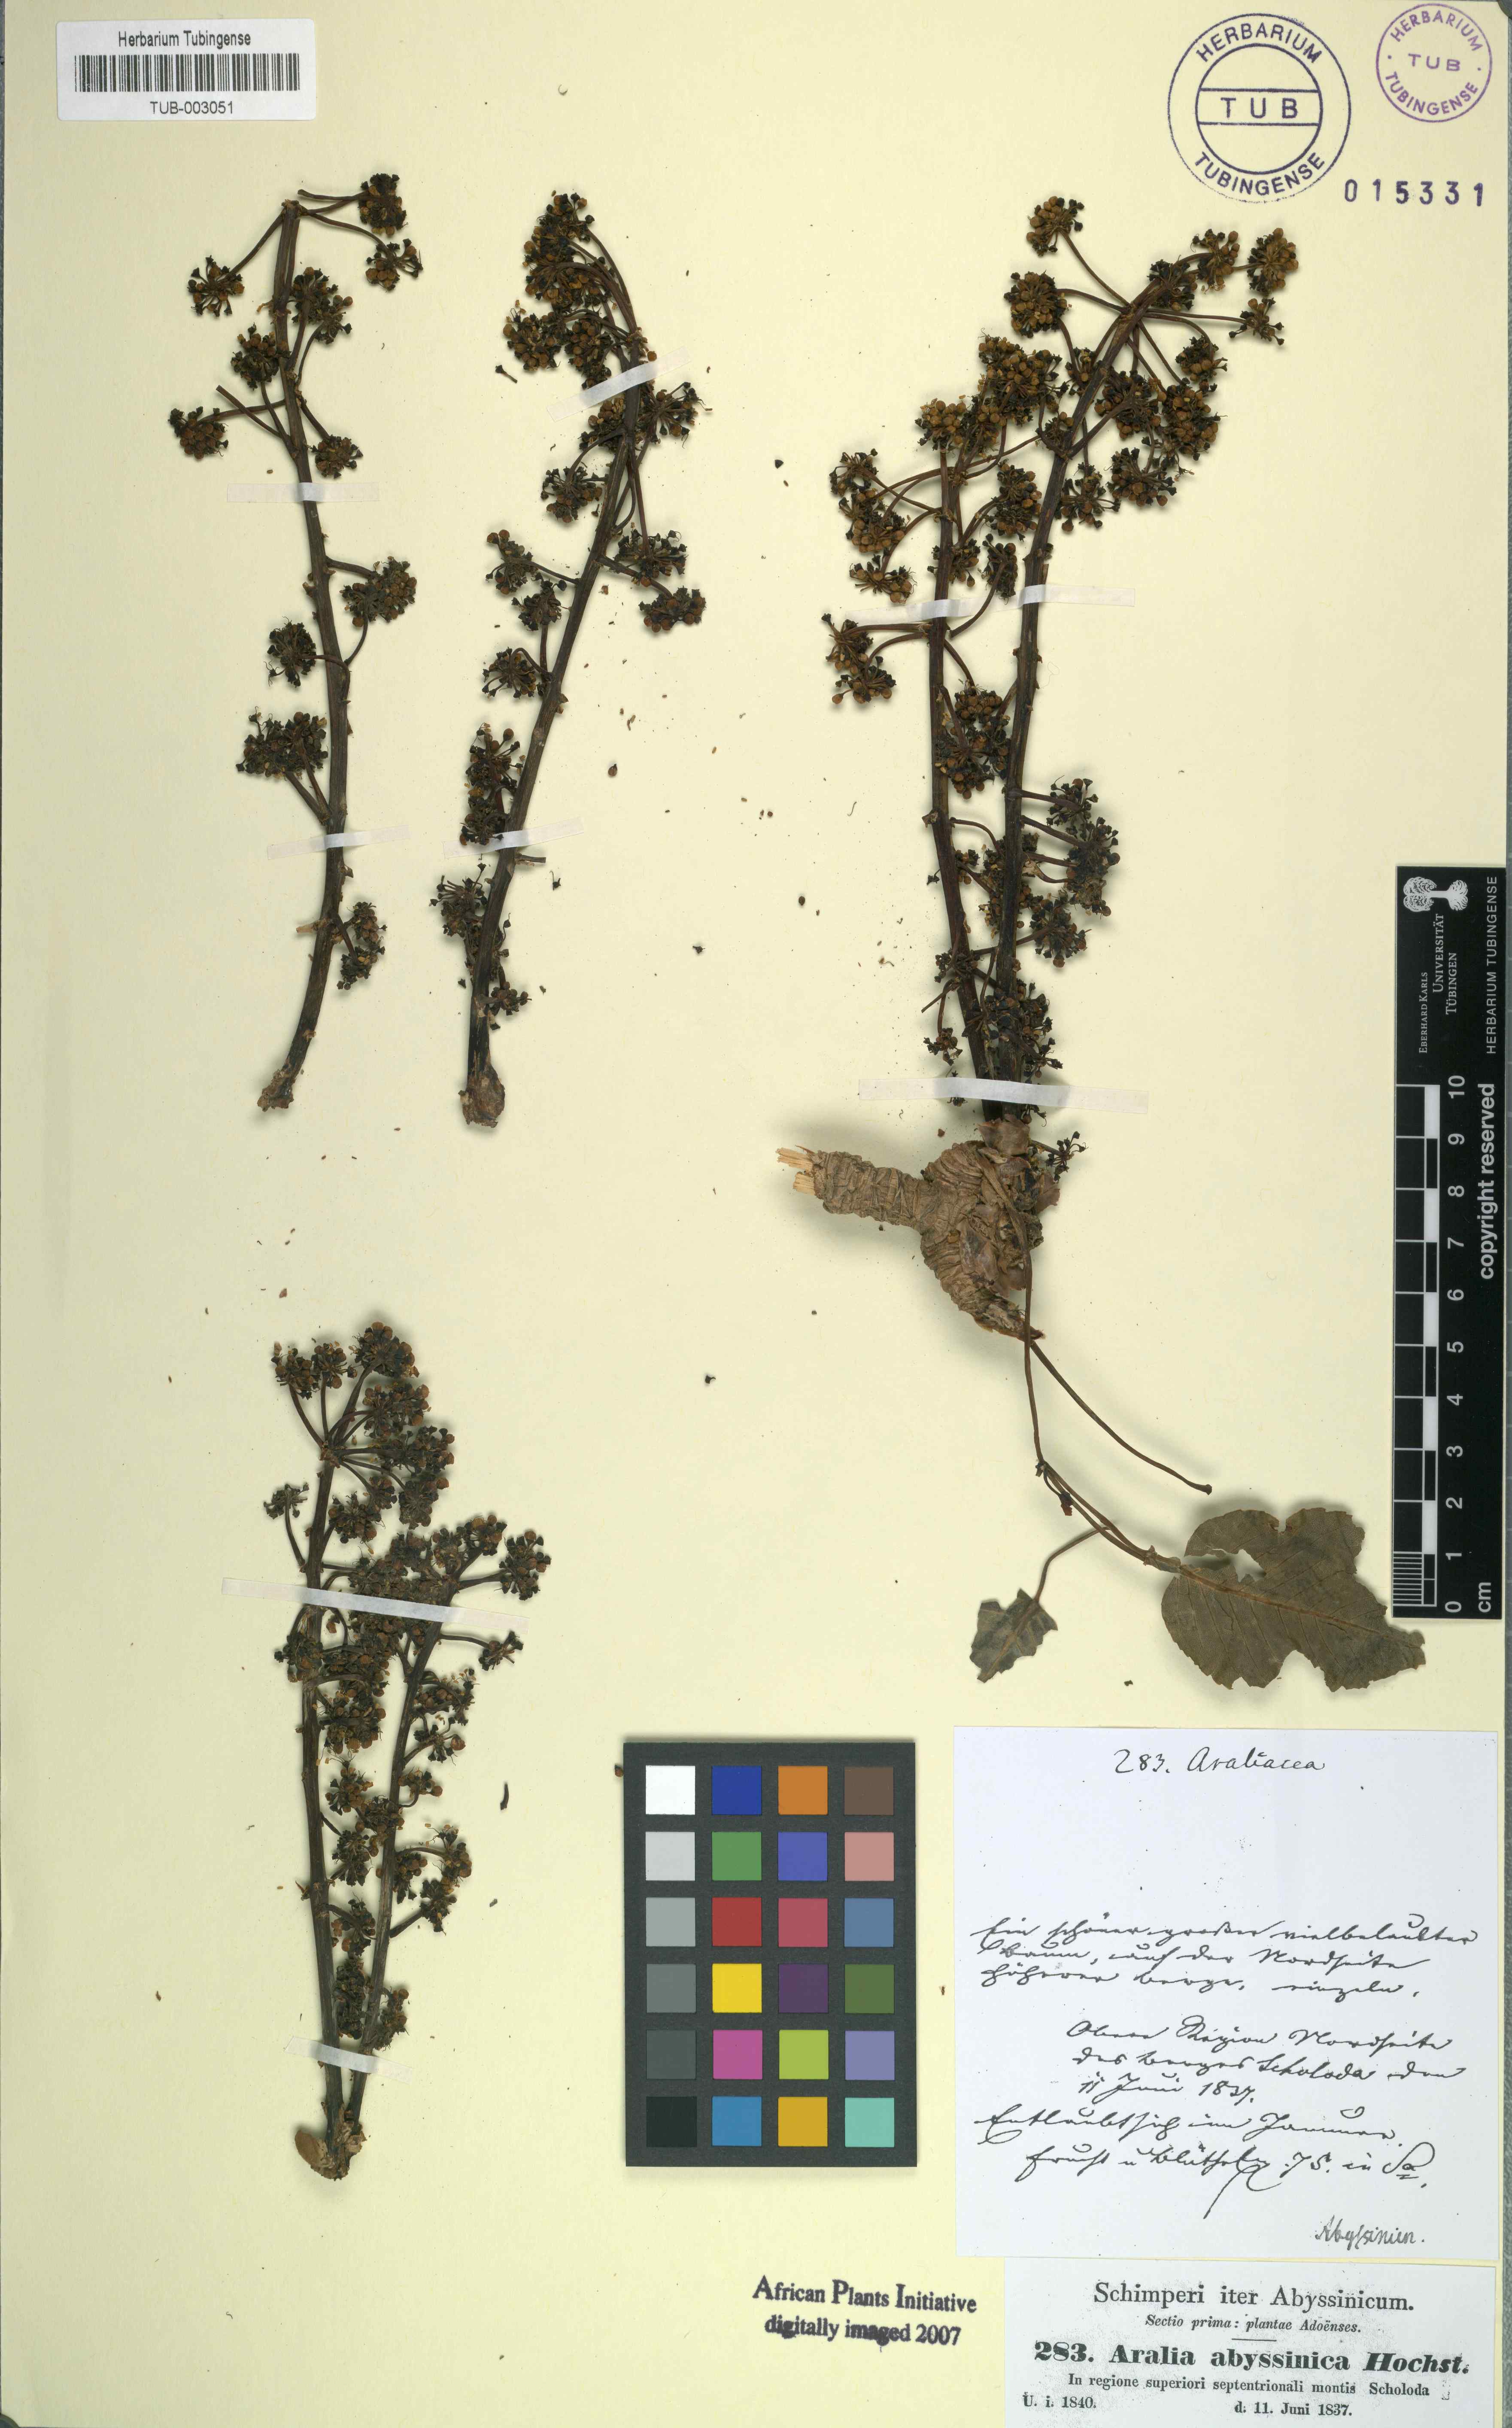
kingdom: Plantae
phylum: Tracheophyta
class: Magnoliopsida
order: Apiales
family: Araliaceae
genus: Heptapleurum
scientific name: Heptapleurum abyssinicum
